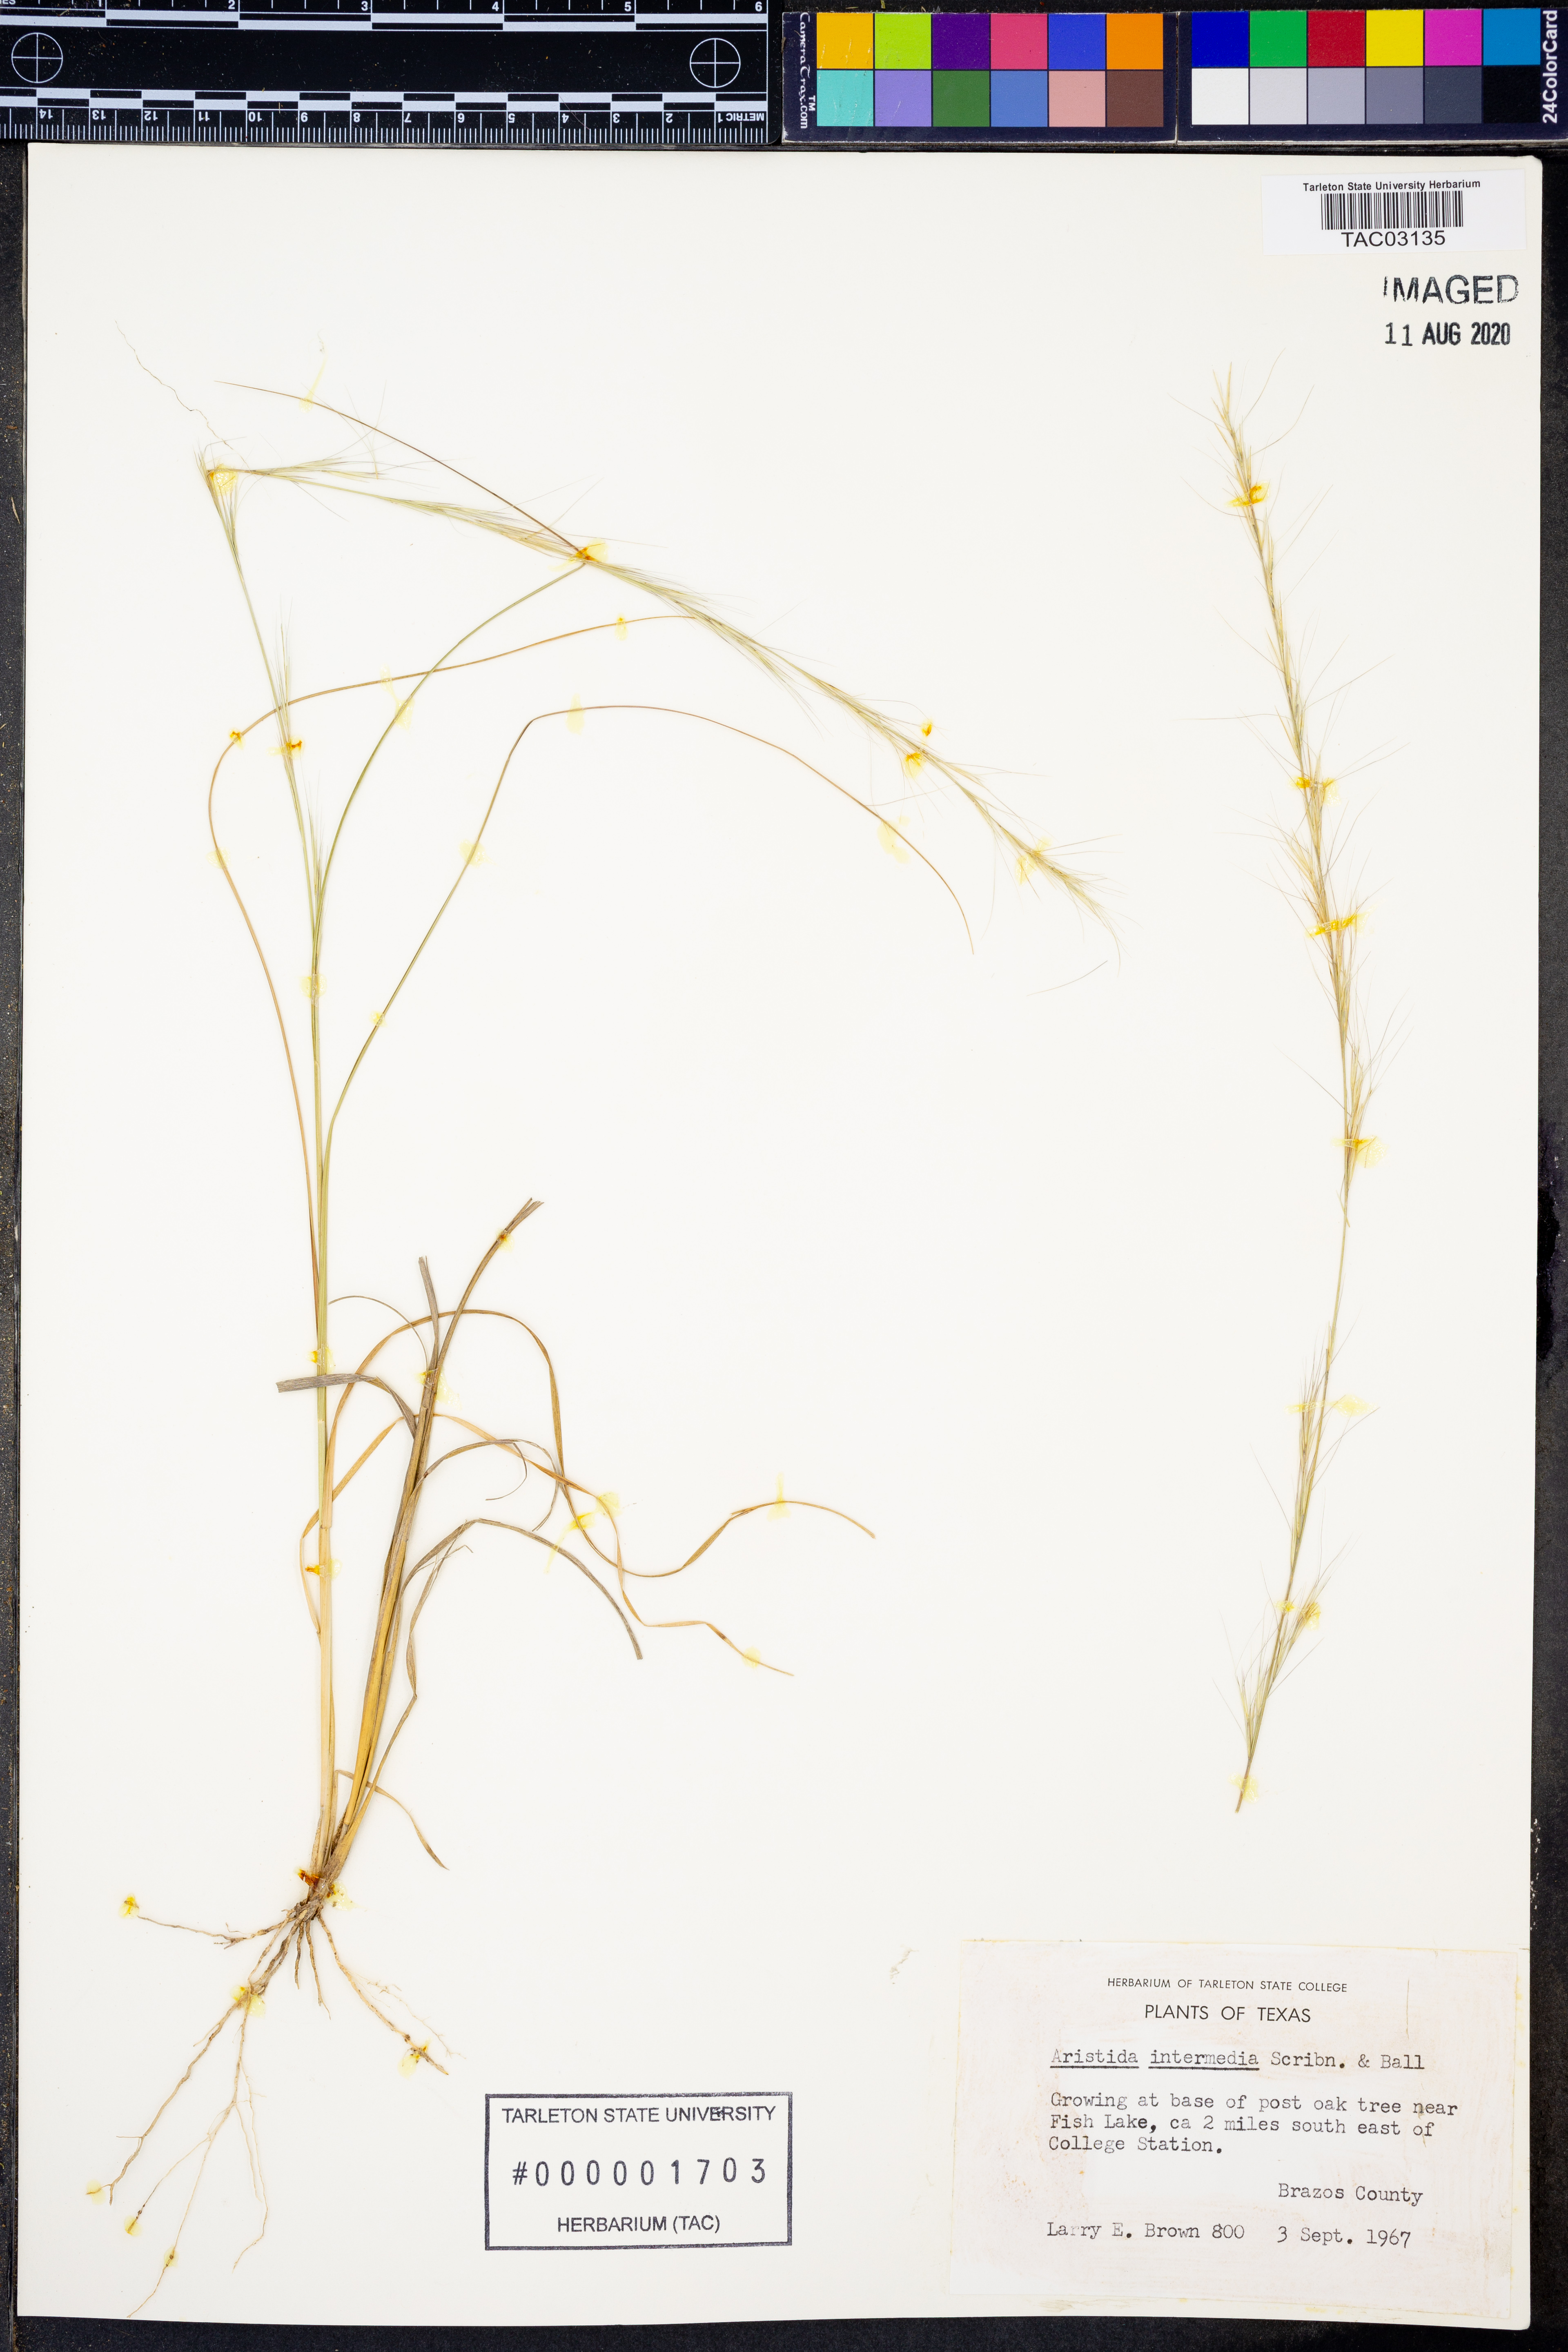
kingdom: Plantae
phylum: Tracheophyta
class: Liliopsida
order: Poales
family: Poaceae
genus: Aristida
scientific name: Aristida longespica
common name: Long-spiked triple-awned grass
